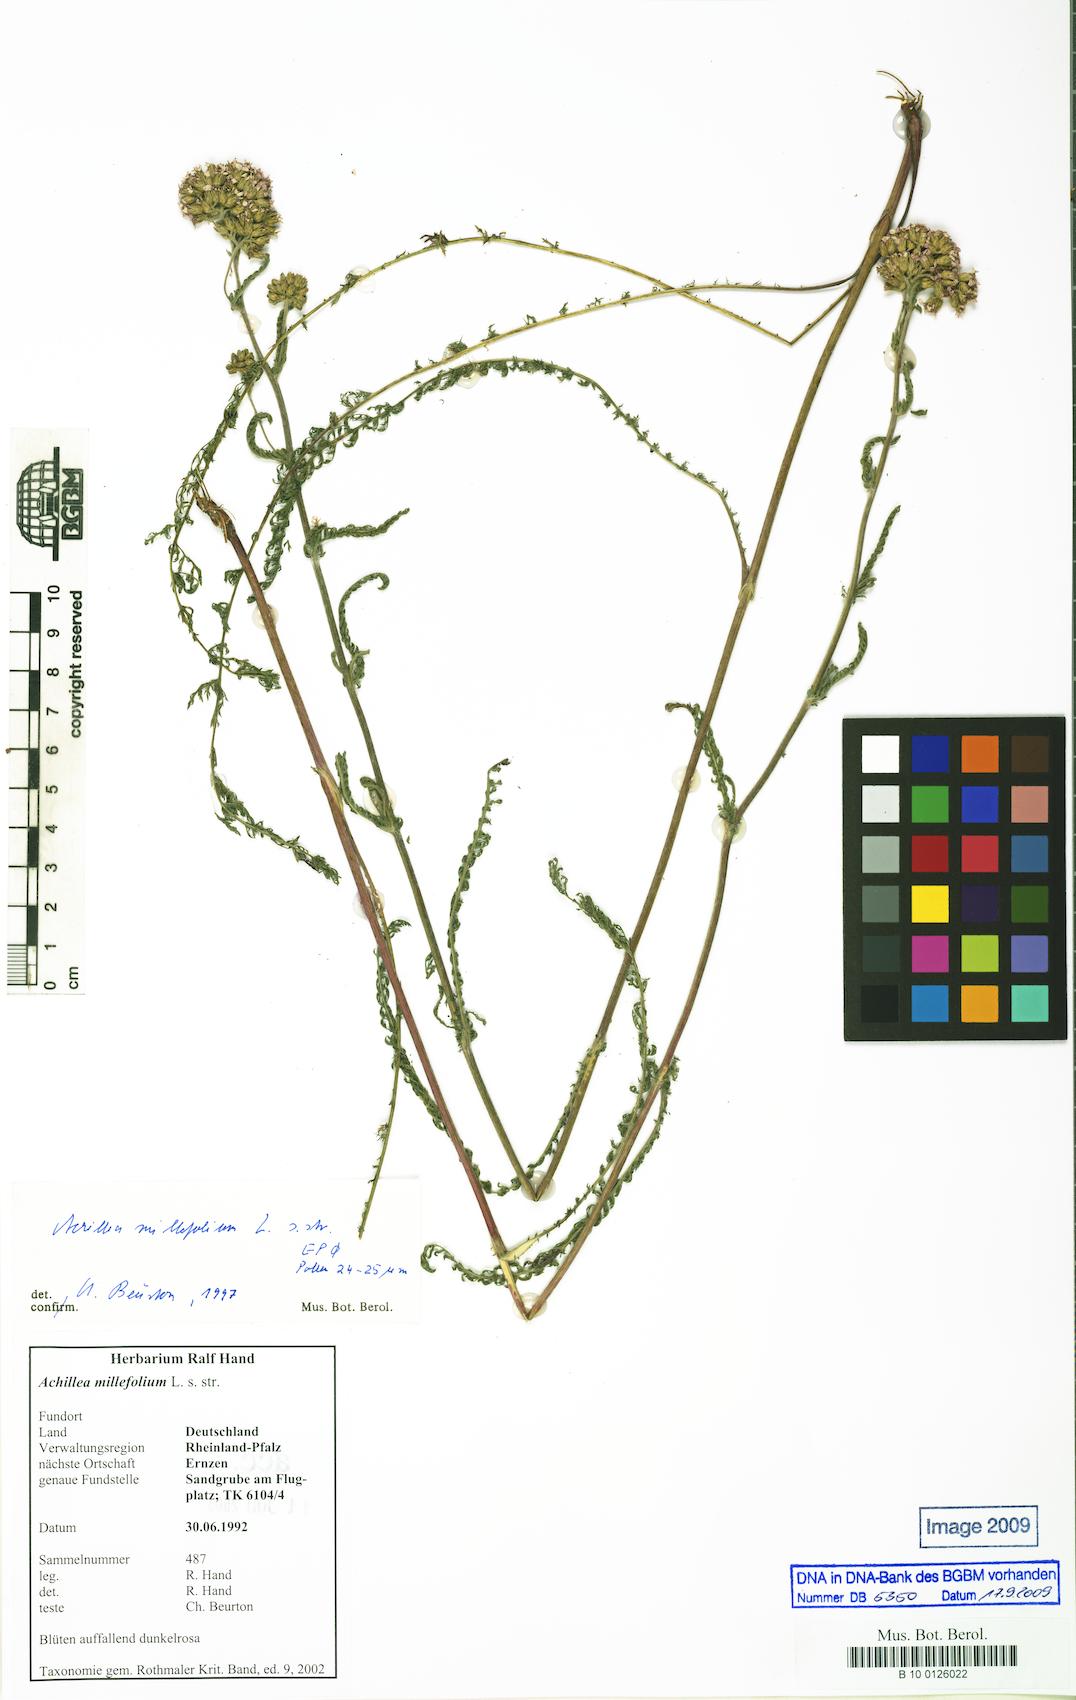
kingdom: Plantae
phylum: Tracheophyta
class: Magnoliopsida
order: Asterales
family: Asteraceae
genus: Achillea
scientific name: Achillea millefolium
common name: Yarrow
